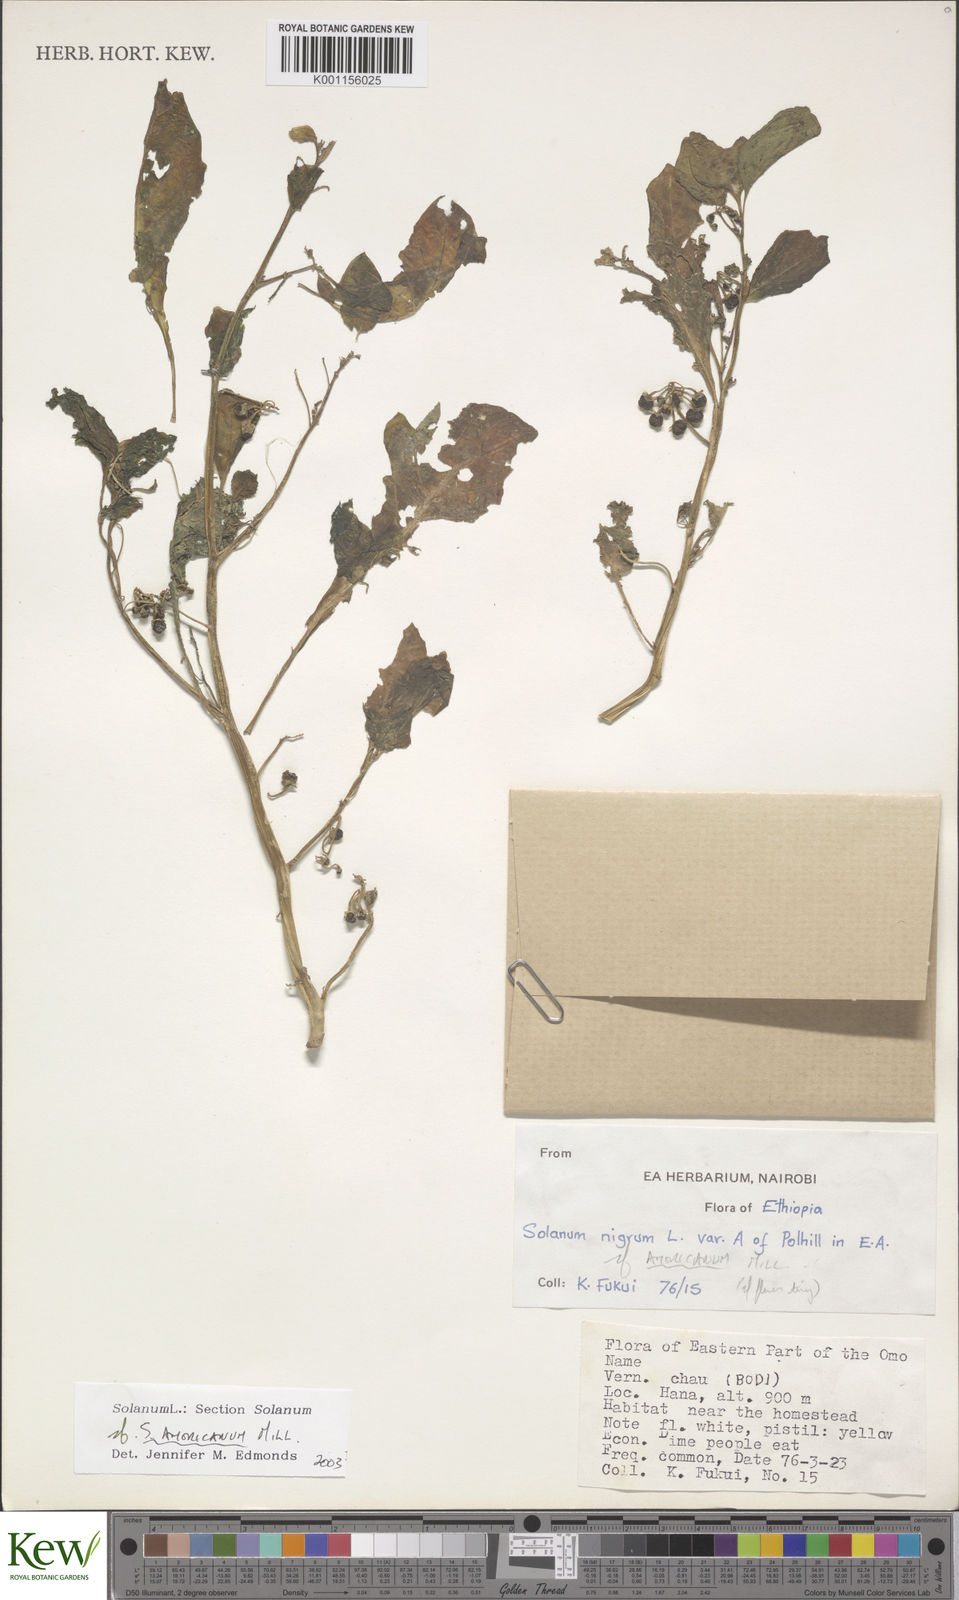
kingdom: Plantae
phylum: Tracheophyta
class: Magnoliopsida
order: Solanales
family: Solanaceae
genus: Solanum
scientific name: Solanum tarderemotum
